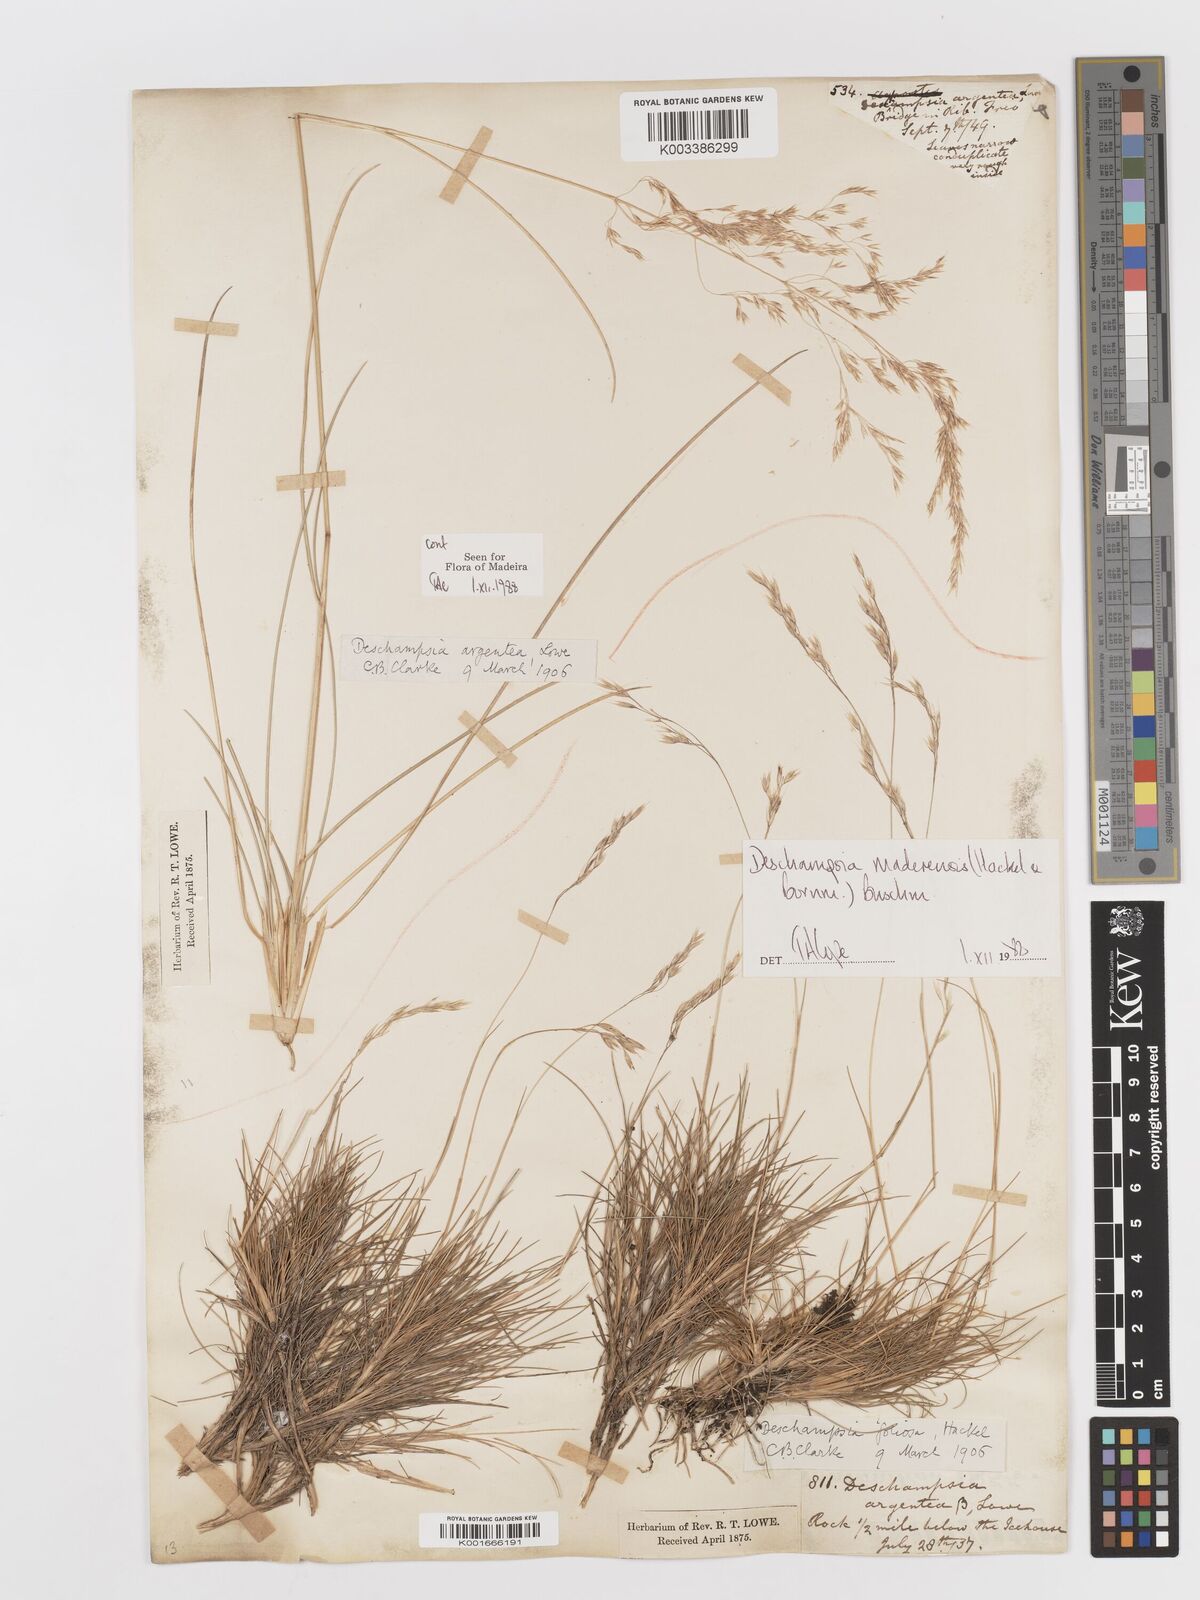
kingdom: Plantae
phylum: Tracheophyta
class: Liliopsida
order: Poales
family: Poaceae
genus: Avenella
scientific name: Avenella flexuosa
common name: Wavy hairgrass
